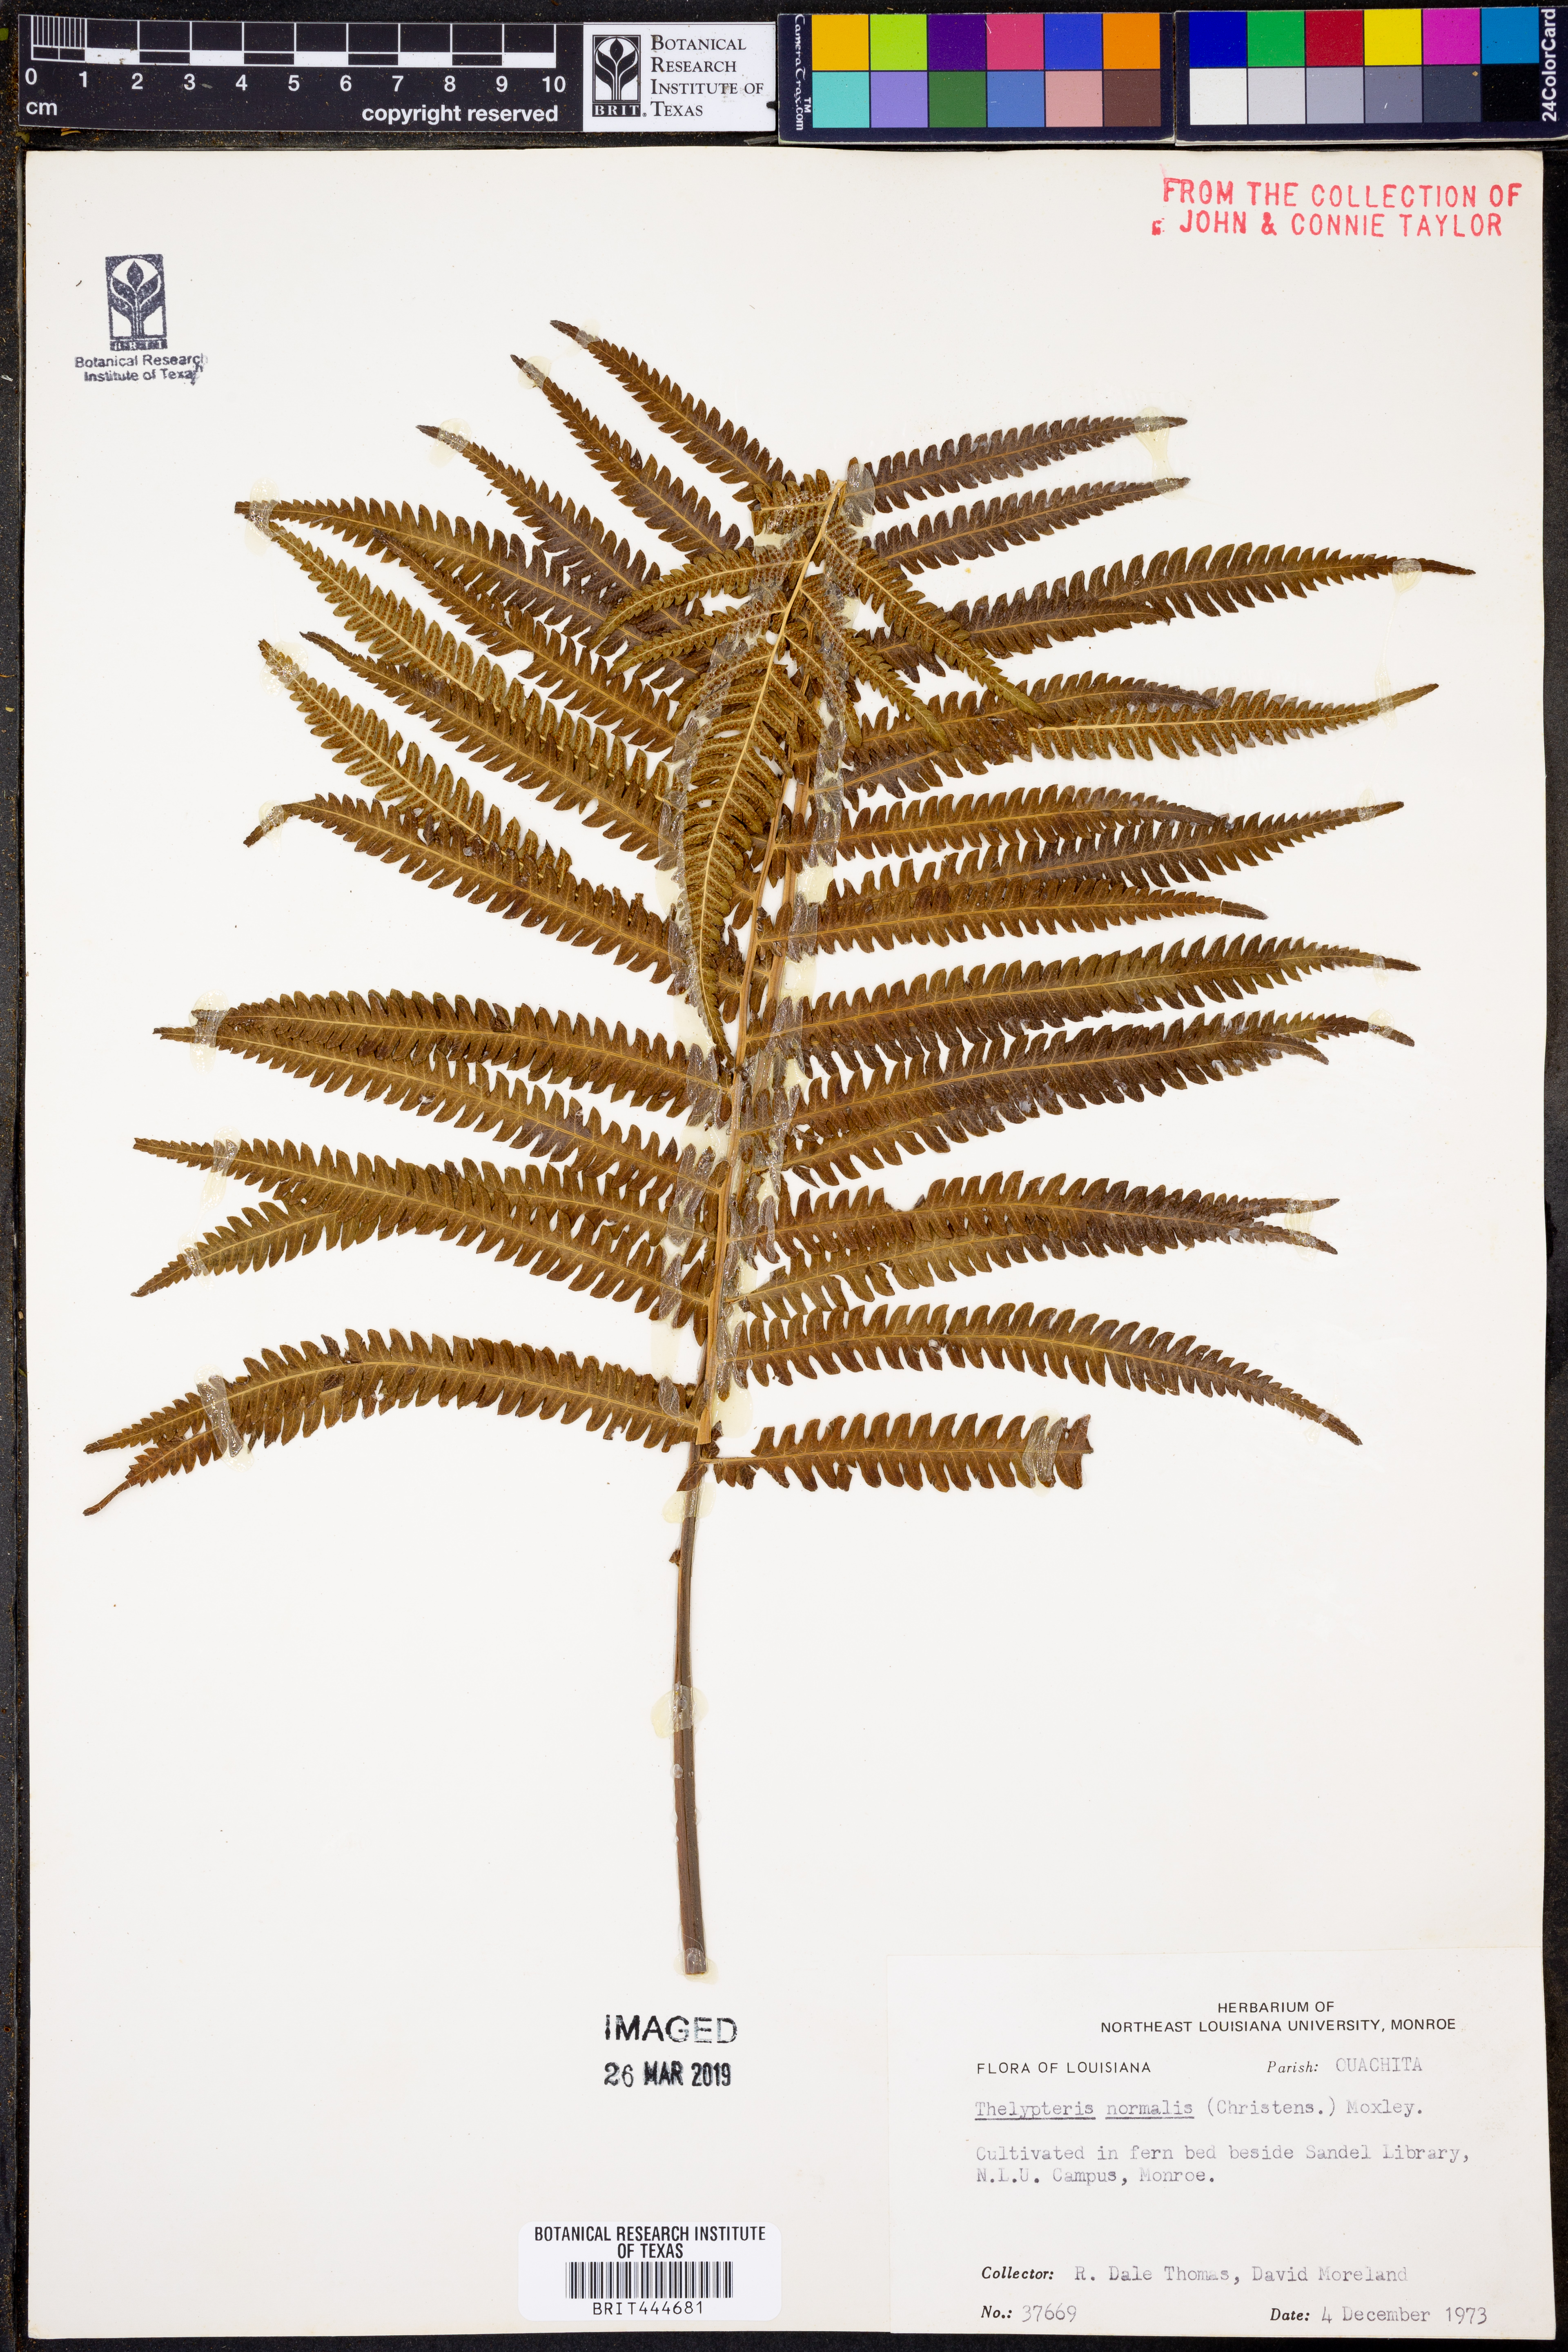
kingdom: Plantae
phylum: Tracheophyta
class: Polypodiopsida
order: Polypodiales
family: Thelypteridaceae
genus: Pelazoneuron
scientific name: Pelazoneuron kunthii
